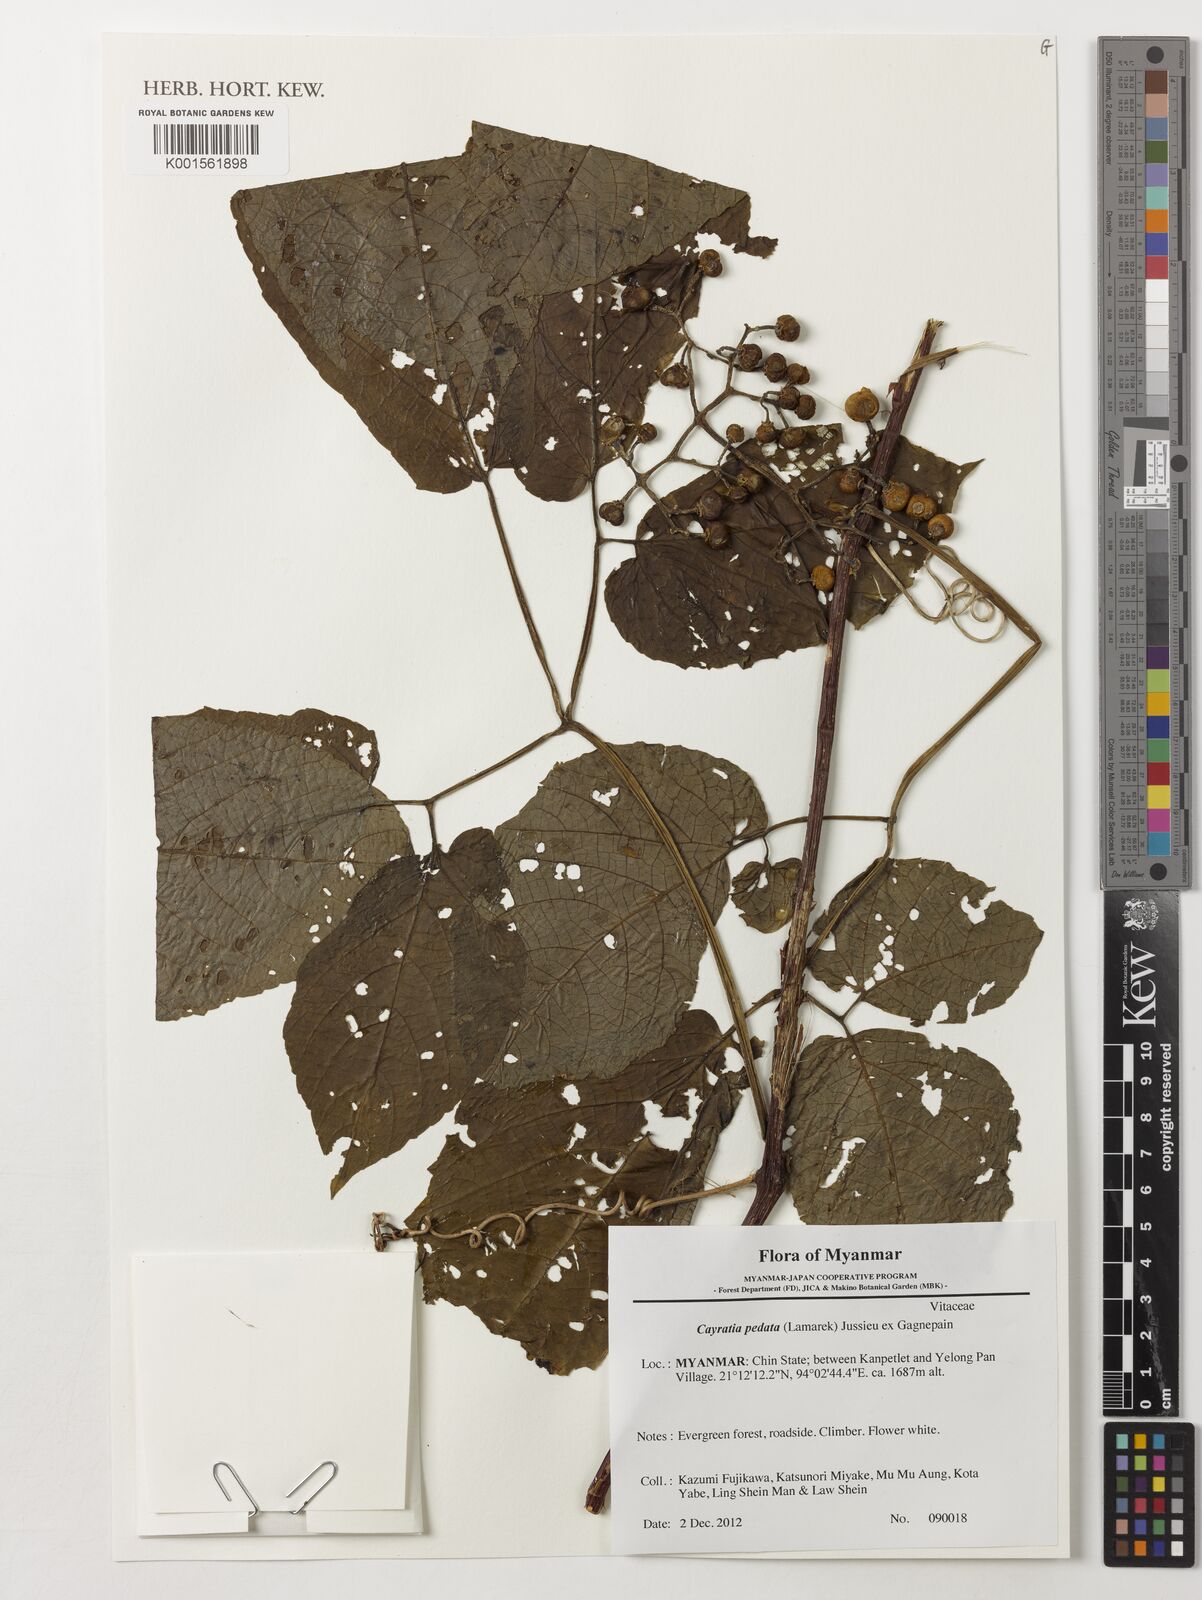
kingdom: Plantae
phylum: Tracheophyta
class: Magnoliopsida
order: Vitales
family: Vitaceae
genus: Cayratia
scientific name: Cayratia pedata
